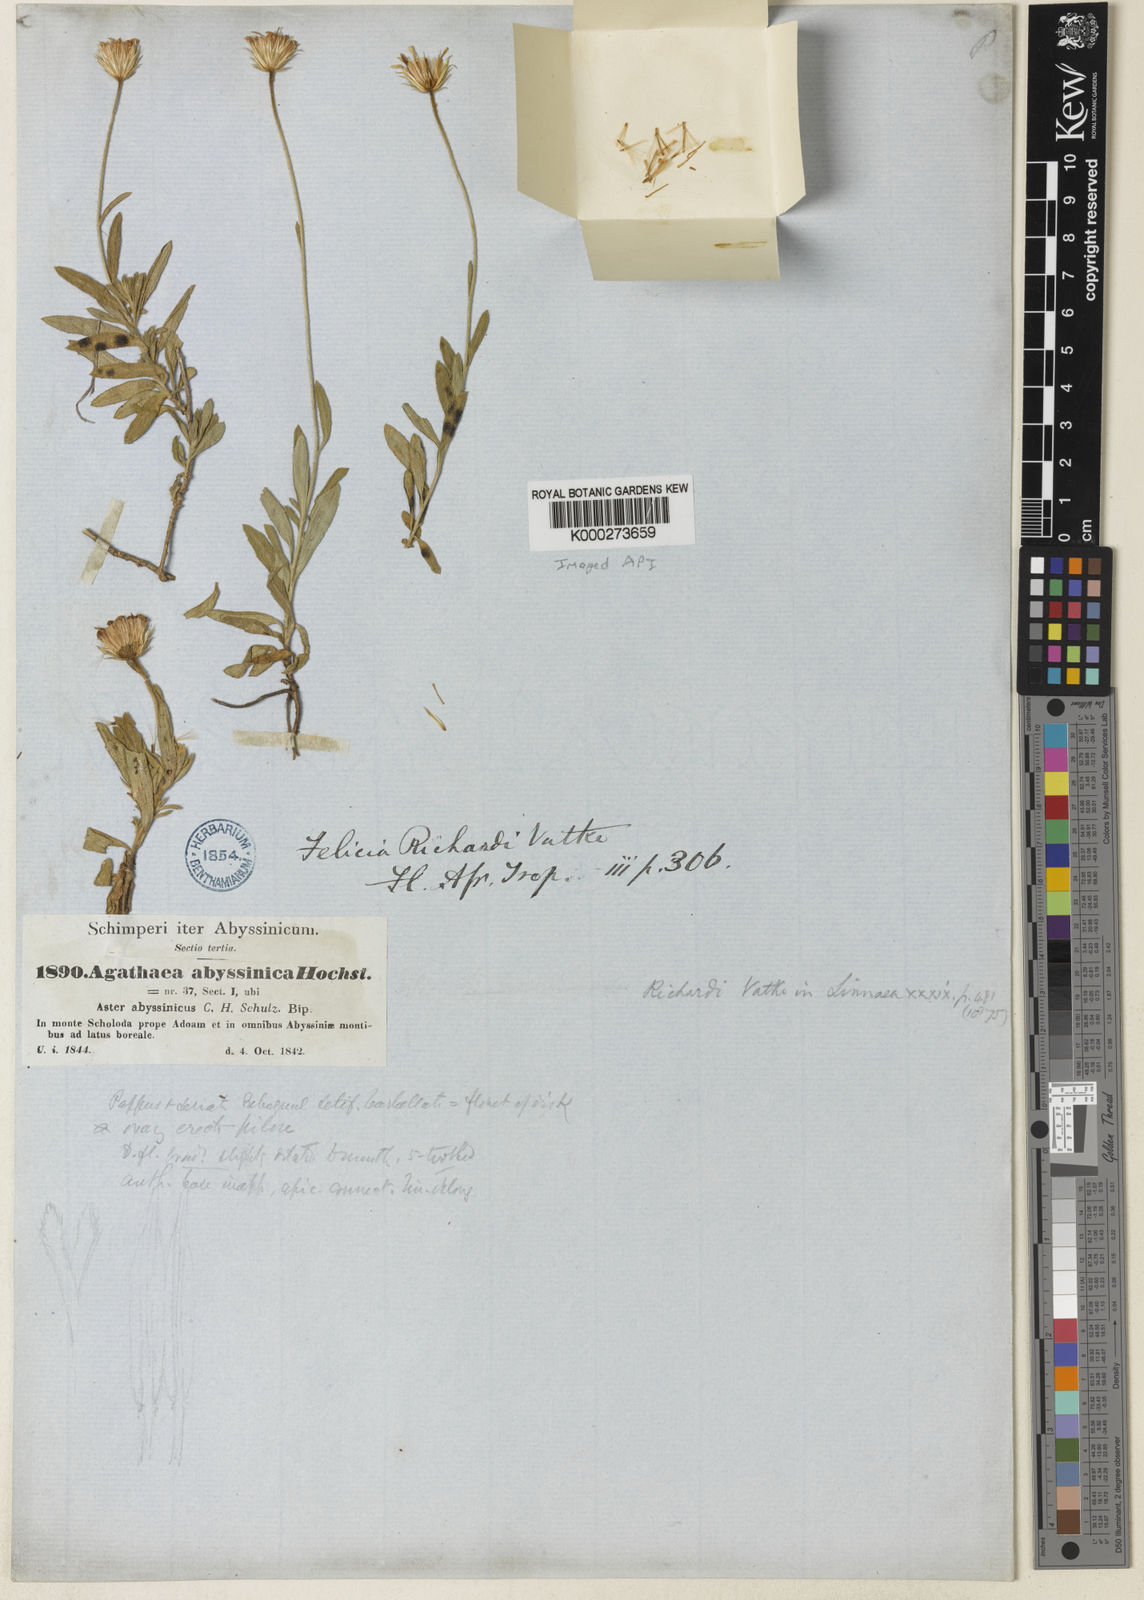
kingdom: Plantae
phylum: Tracheophyta
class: Magnoliopsida
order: Asterales
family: Asteraceae
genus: Felicia
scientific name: Felicia dentata
